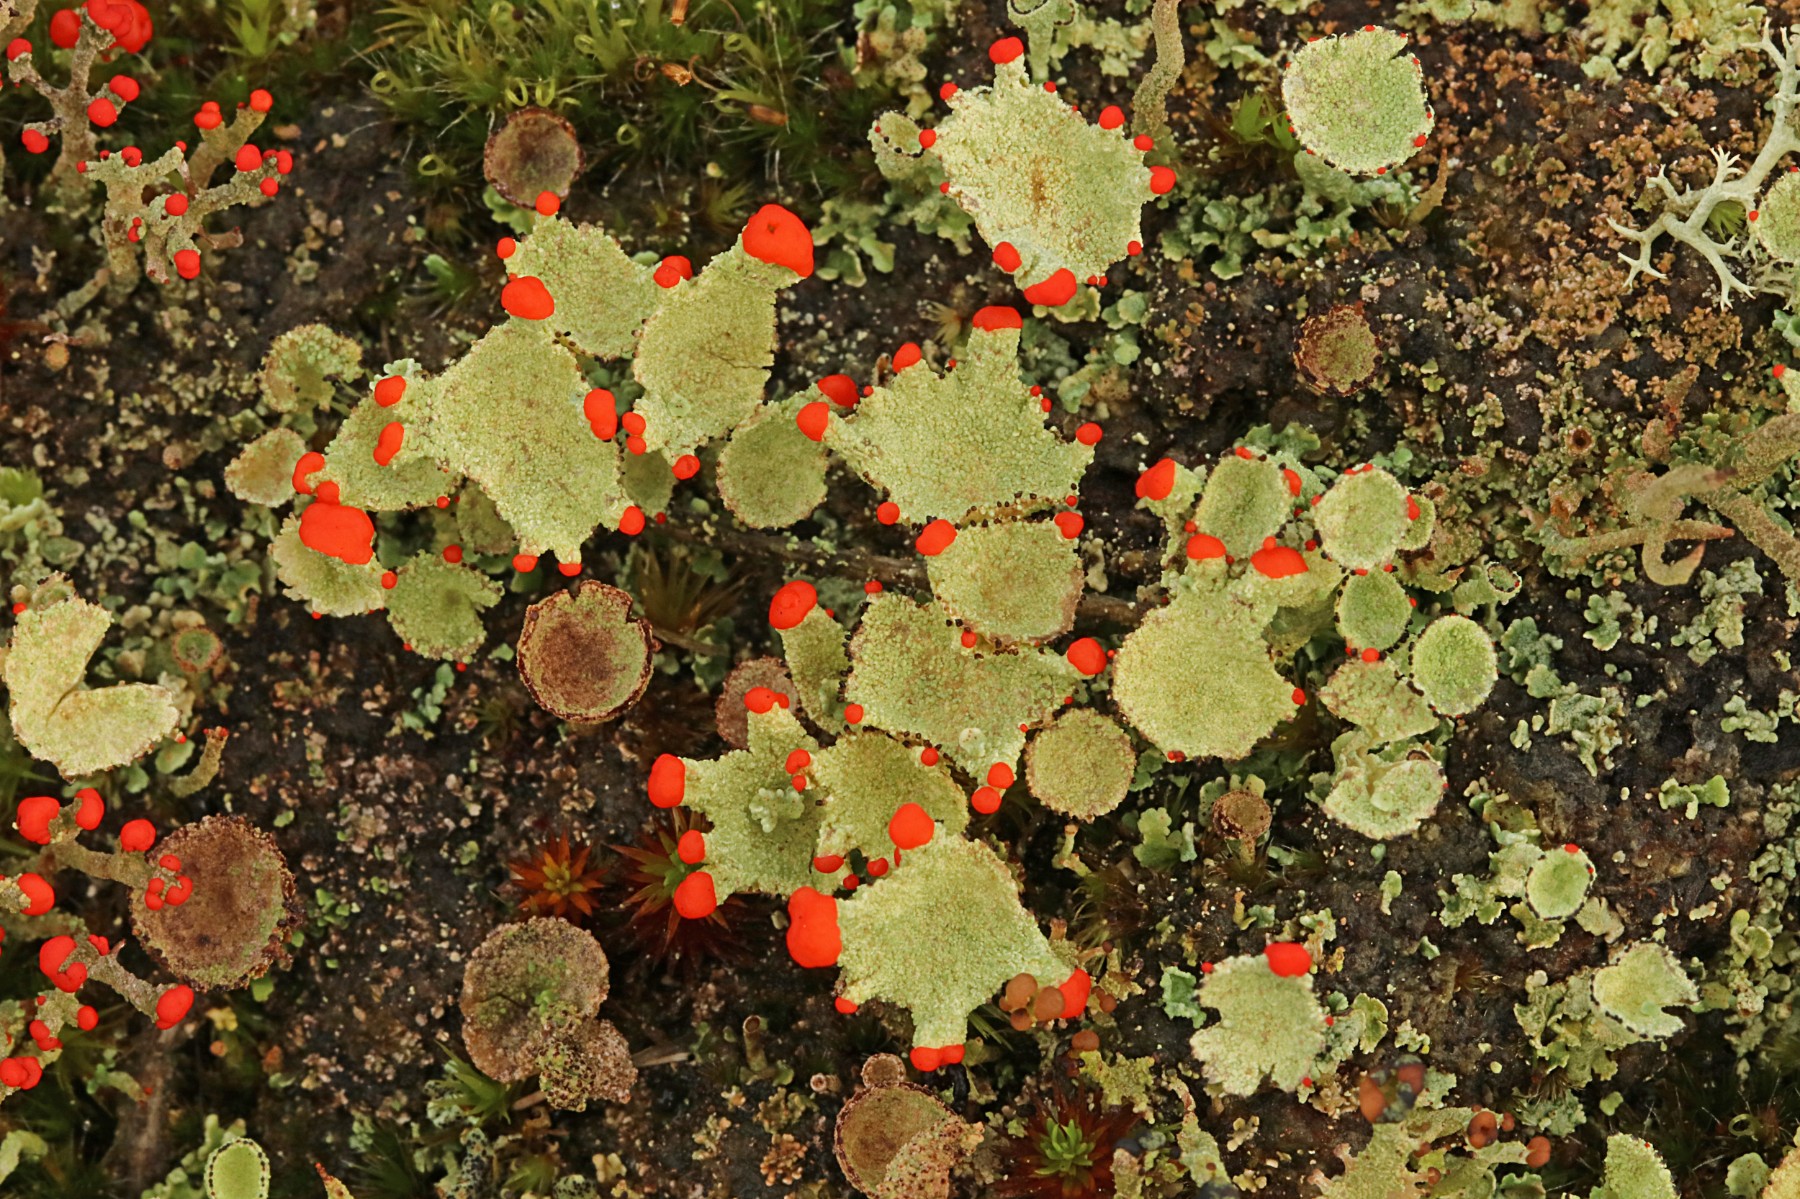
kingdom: Fungi
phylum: Ascomycota
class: Lecanoromycetes
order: Lecanorales
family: Cladoniaceae
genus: Cladonia
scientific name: Cladonia diversa
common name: rød bægerlav
